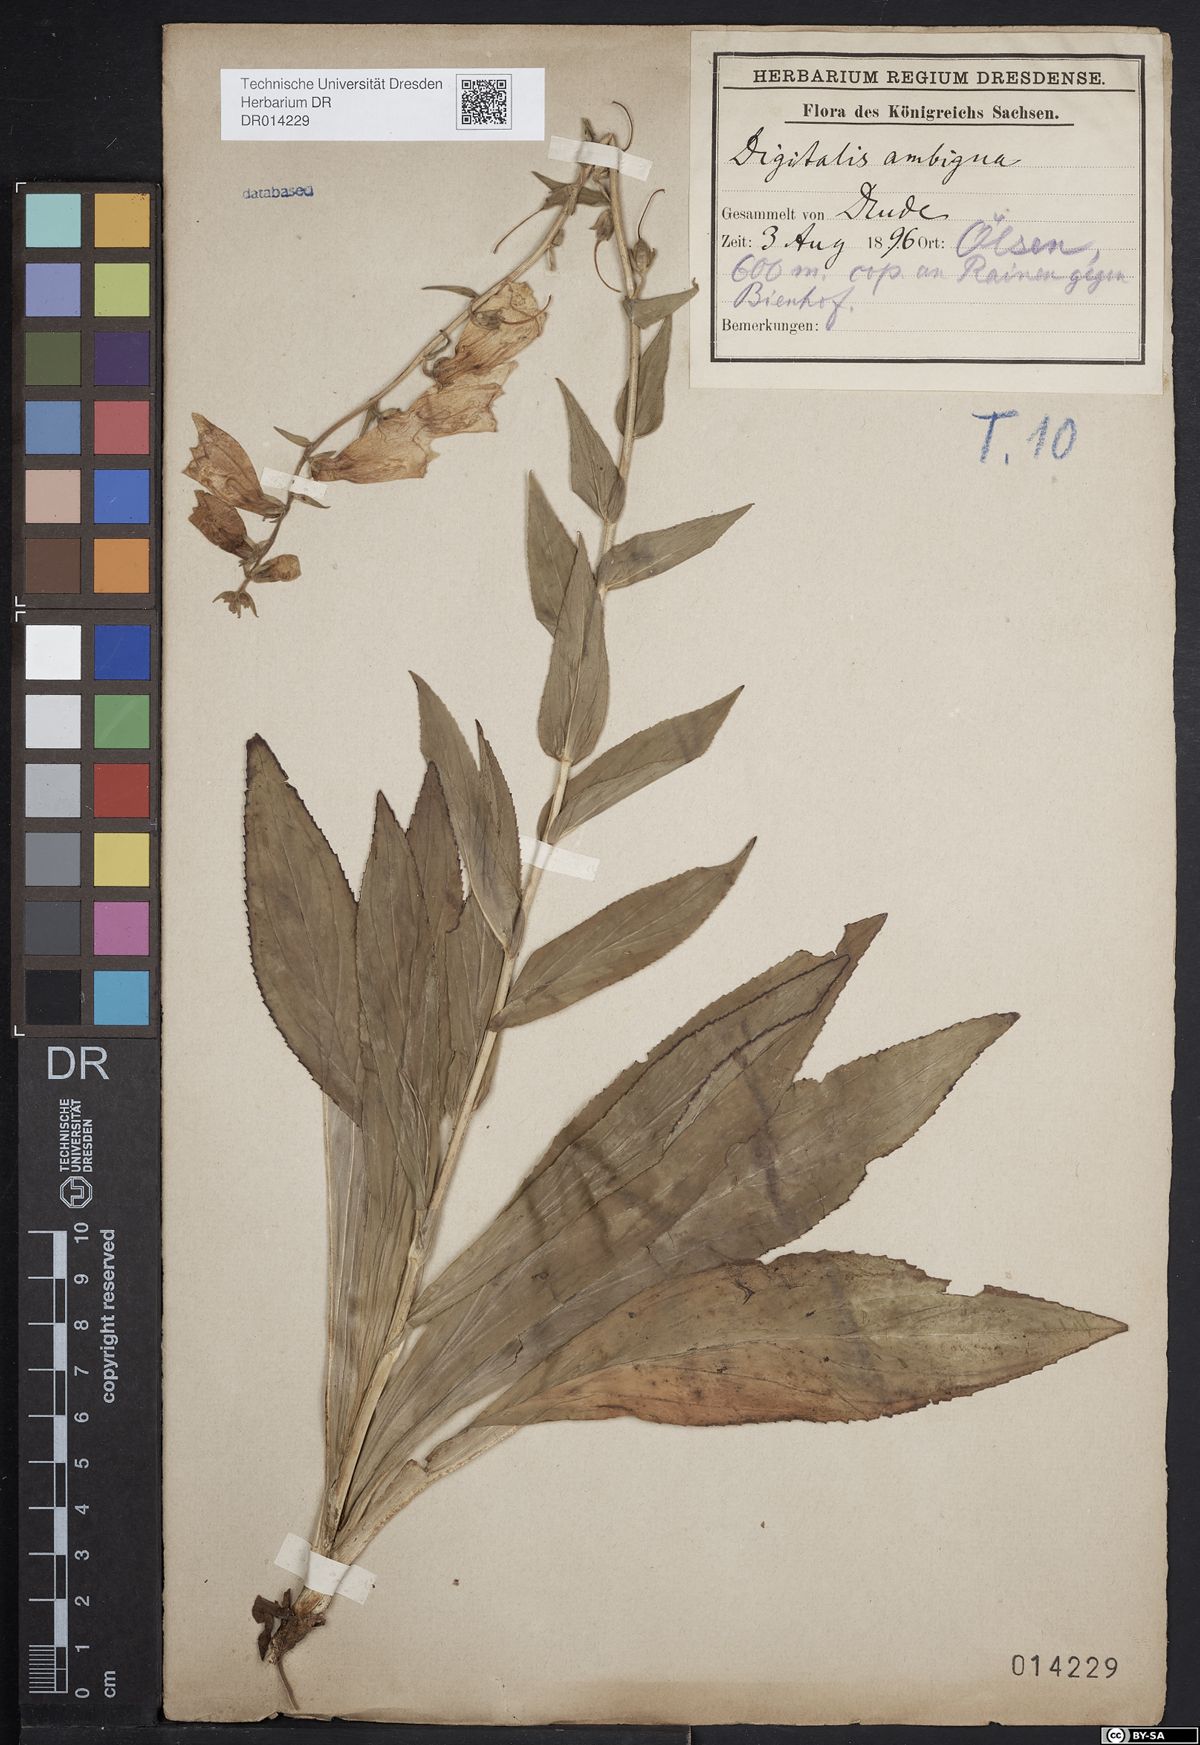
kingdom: Plantae
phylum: Tracheophyta
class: Magnoliopsida
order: Lamiales
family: Plantaginaceae
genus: Digitalis
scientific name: Digitalis grandiflora
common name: Yellow foxglove
